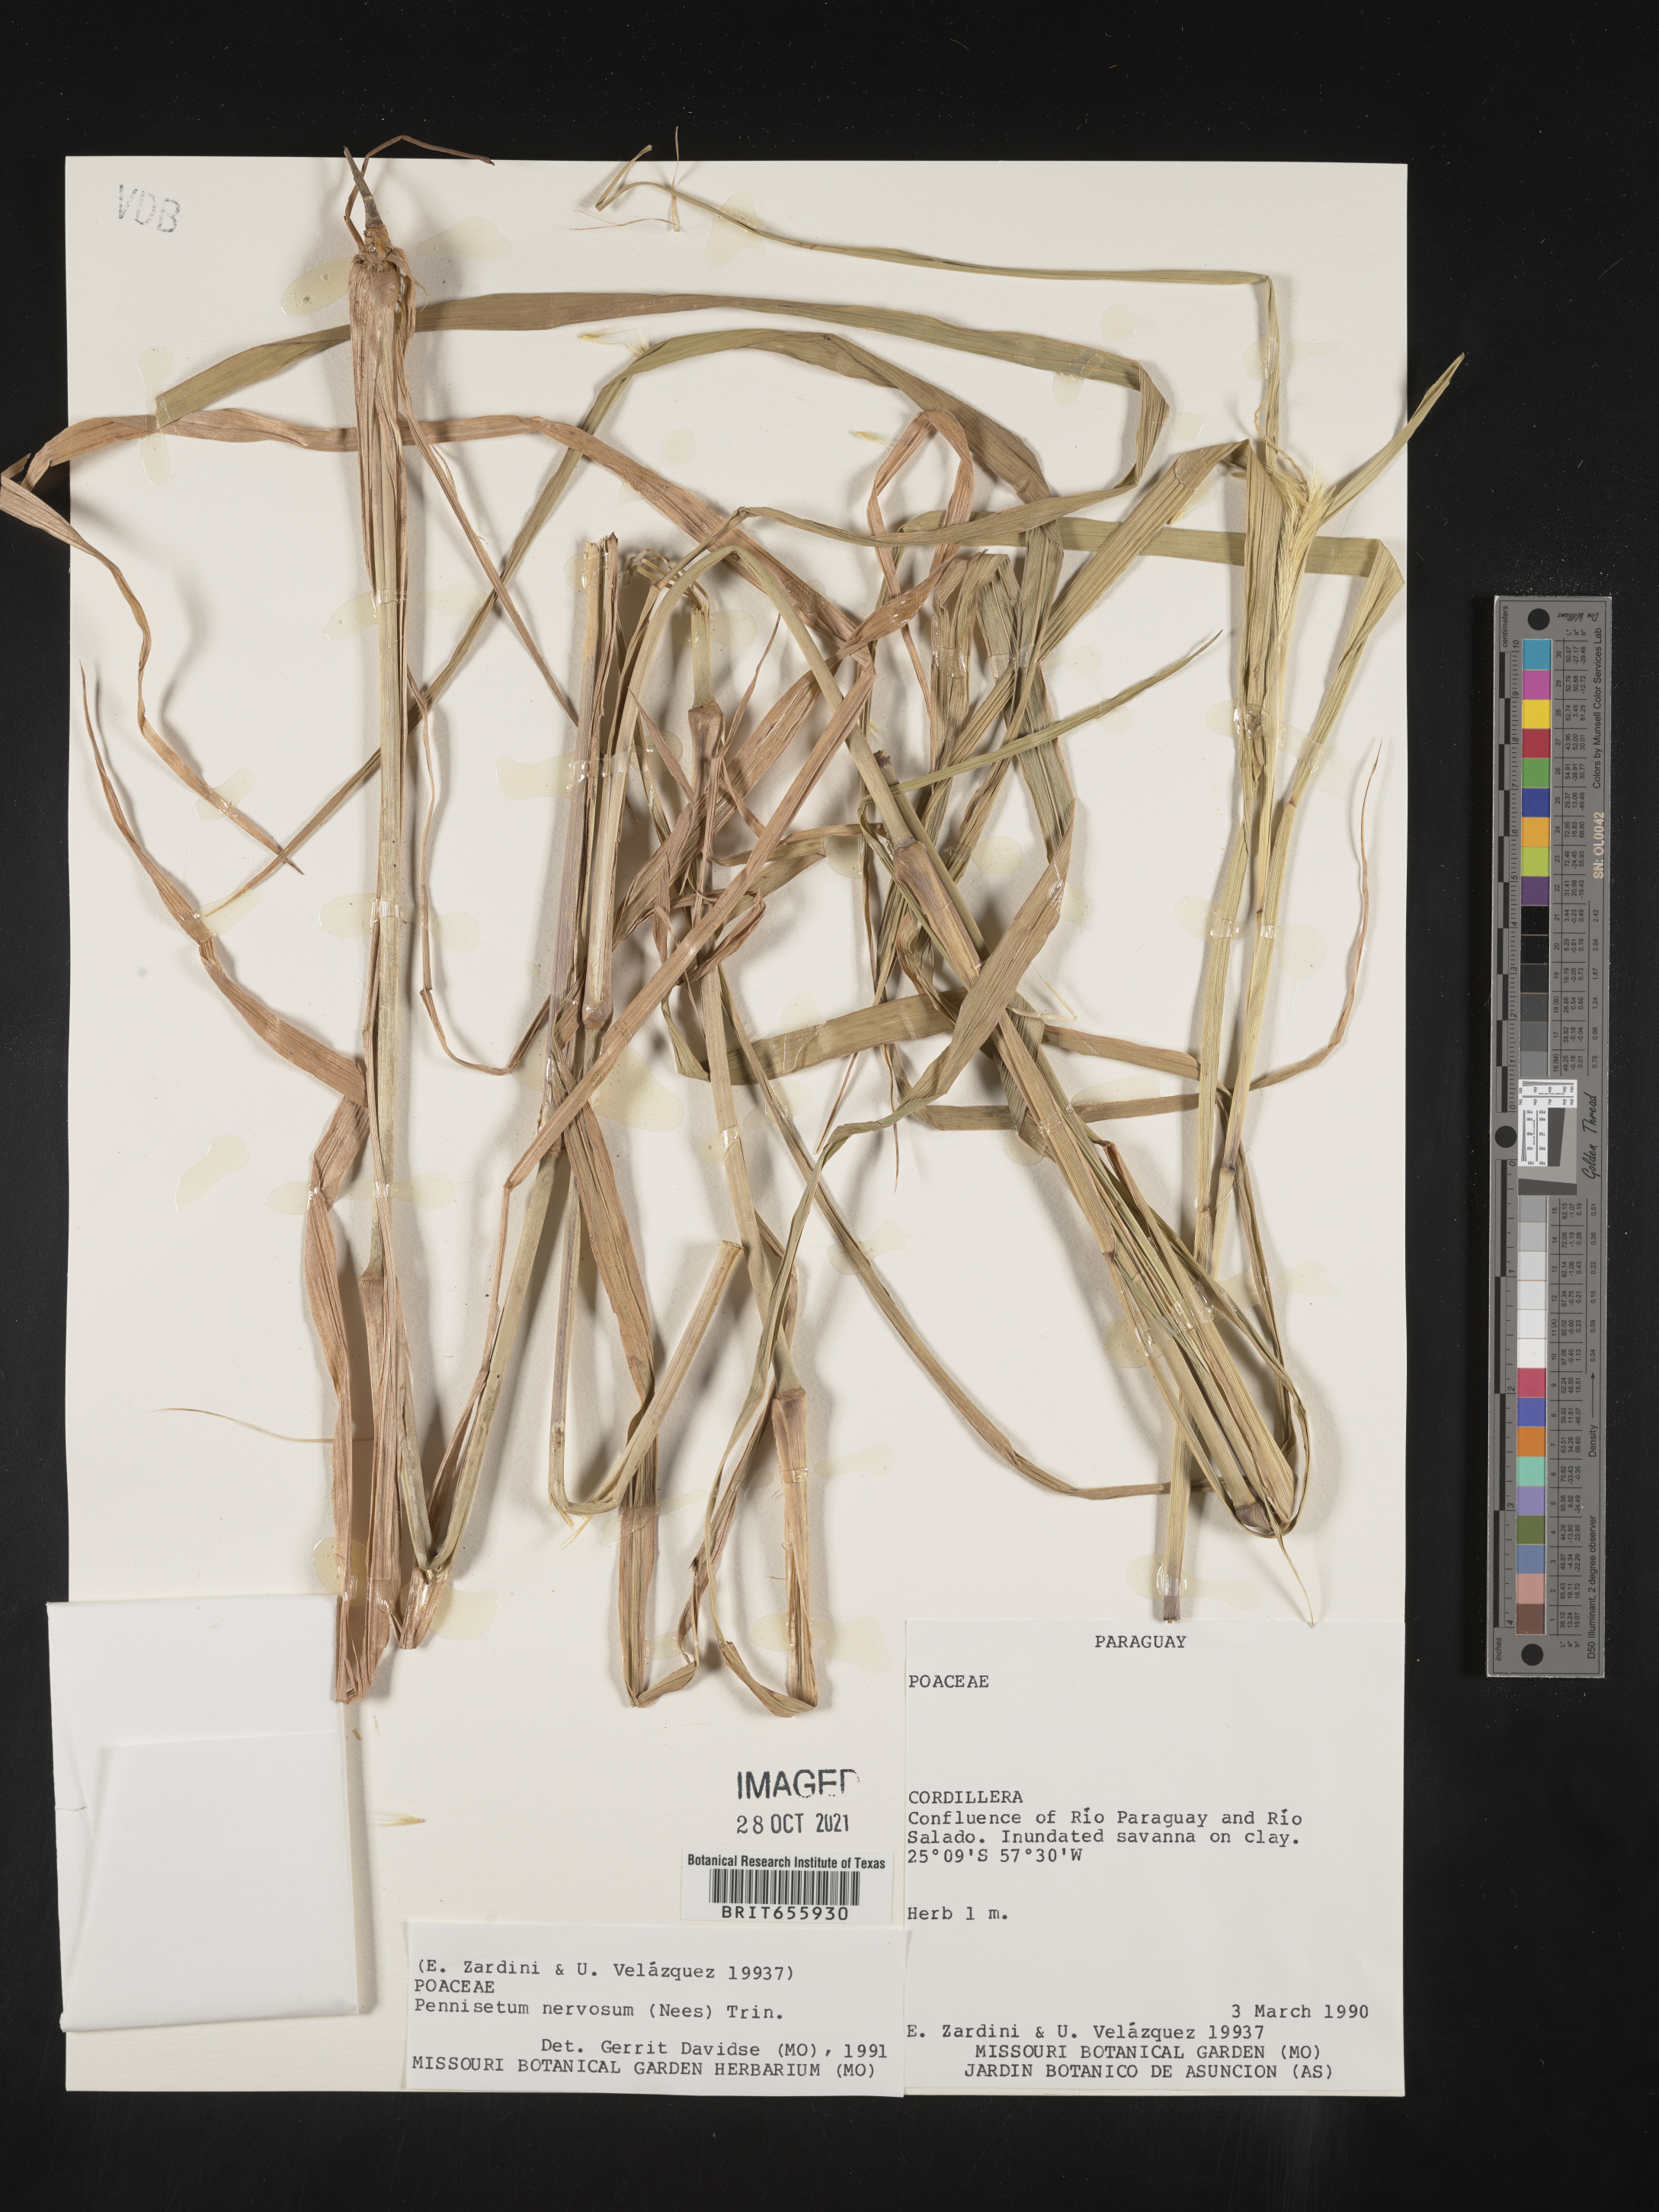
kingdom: Plantae
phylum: Tracheophyta
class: Liliopsida
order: Poales
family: Poaceae
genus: Cenchrus
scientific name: Cenchrus Pennisetum spec
